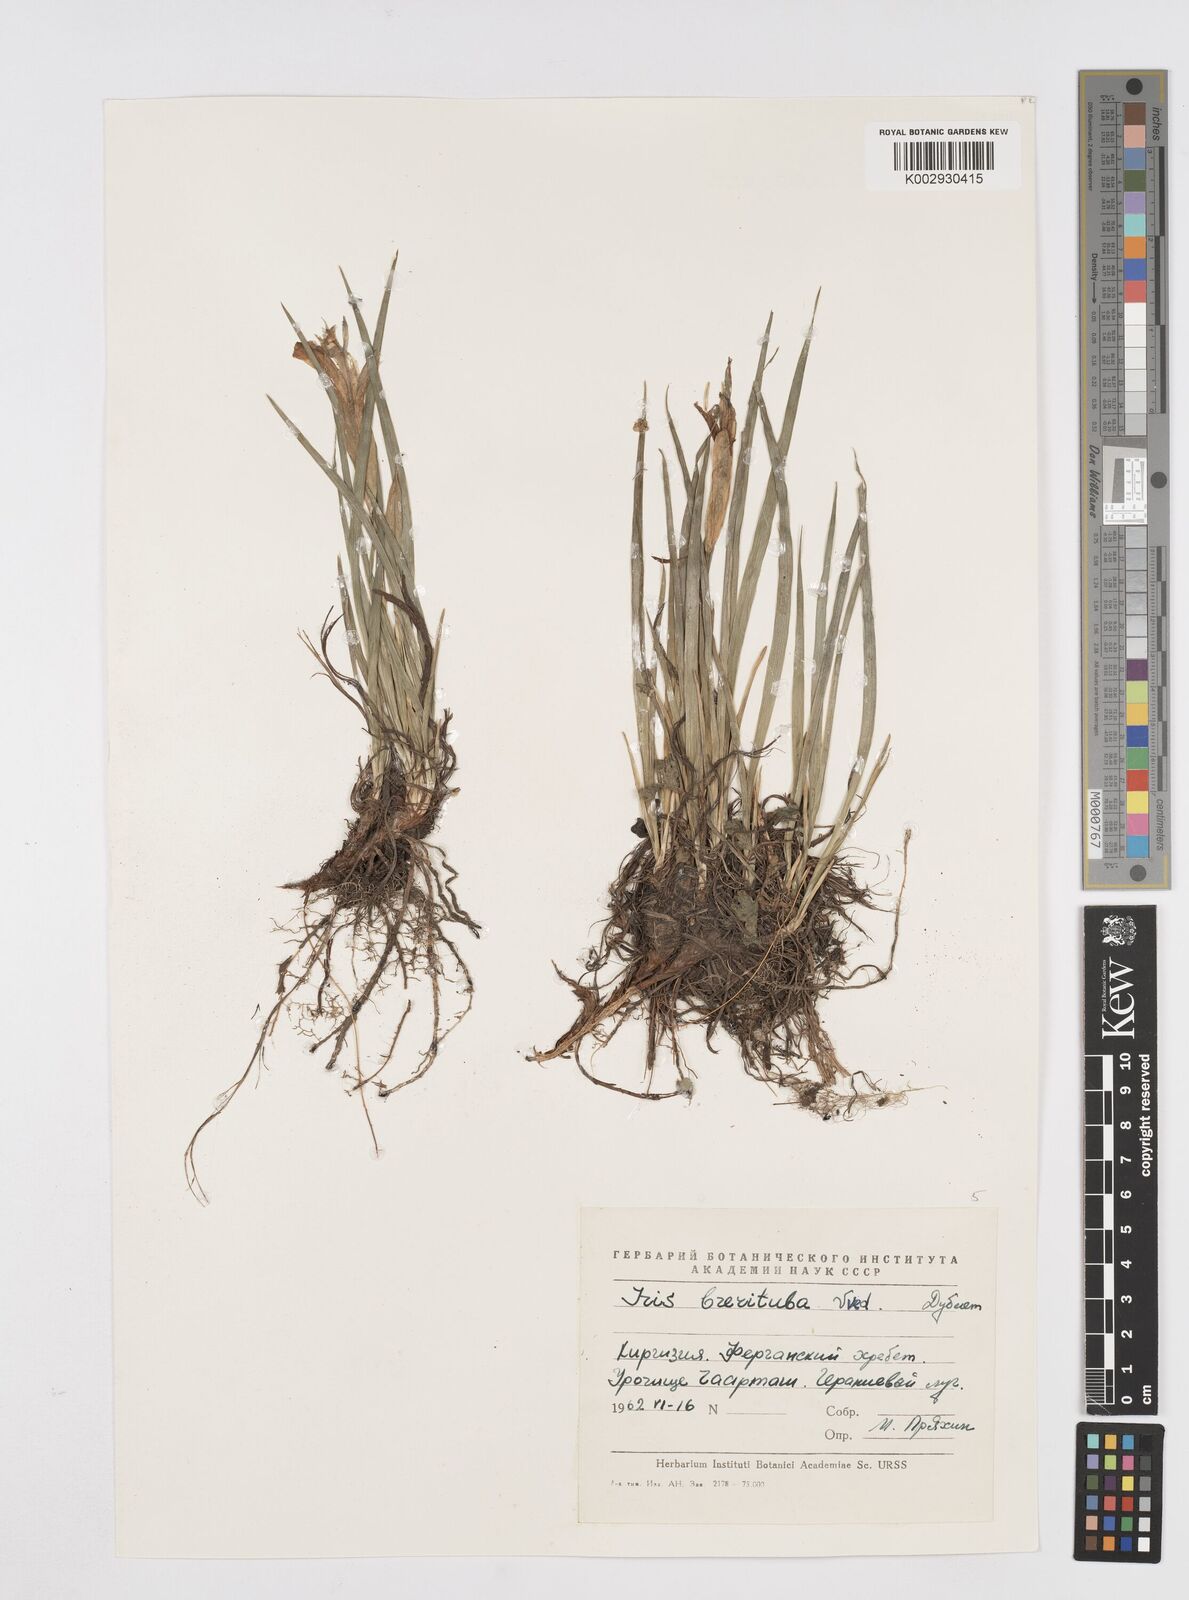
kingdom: Plantae
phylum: Tracheophyta
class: Liliopsida
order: Asparagales
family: Iridaceae
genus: Iris
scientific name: Iris ruthenica
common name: Purple-bract iris
